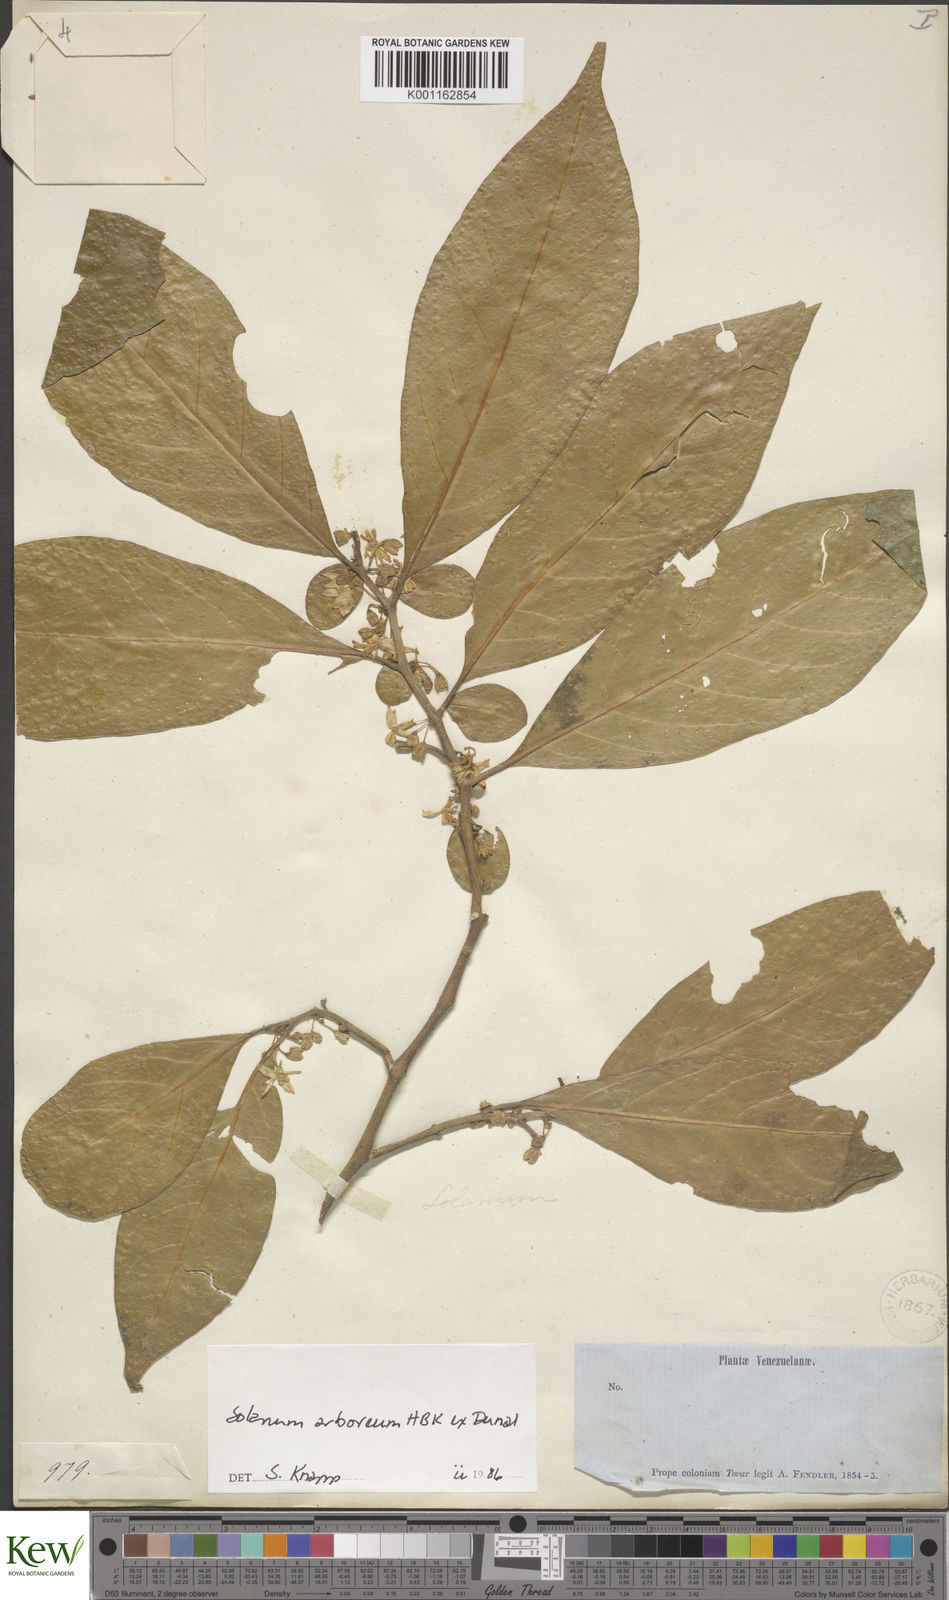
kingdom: Plantae
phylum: Tracheophyta
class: Magnoliopsida
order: Solanales
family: Solanaceae
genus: Solanum
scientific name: Solanum arboreum
